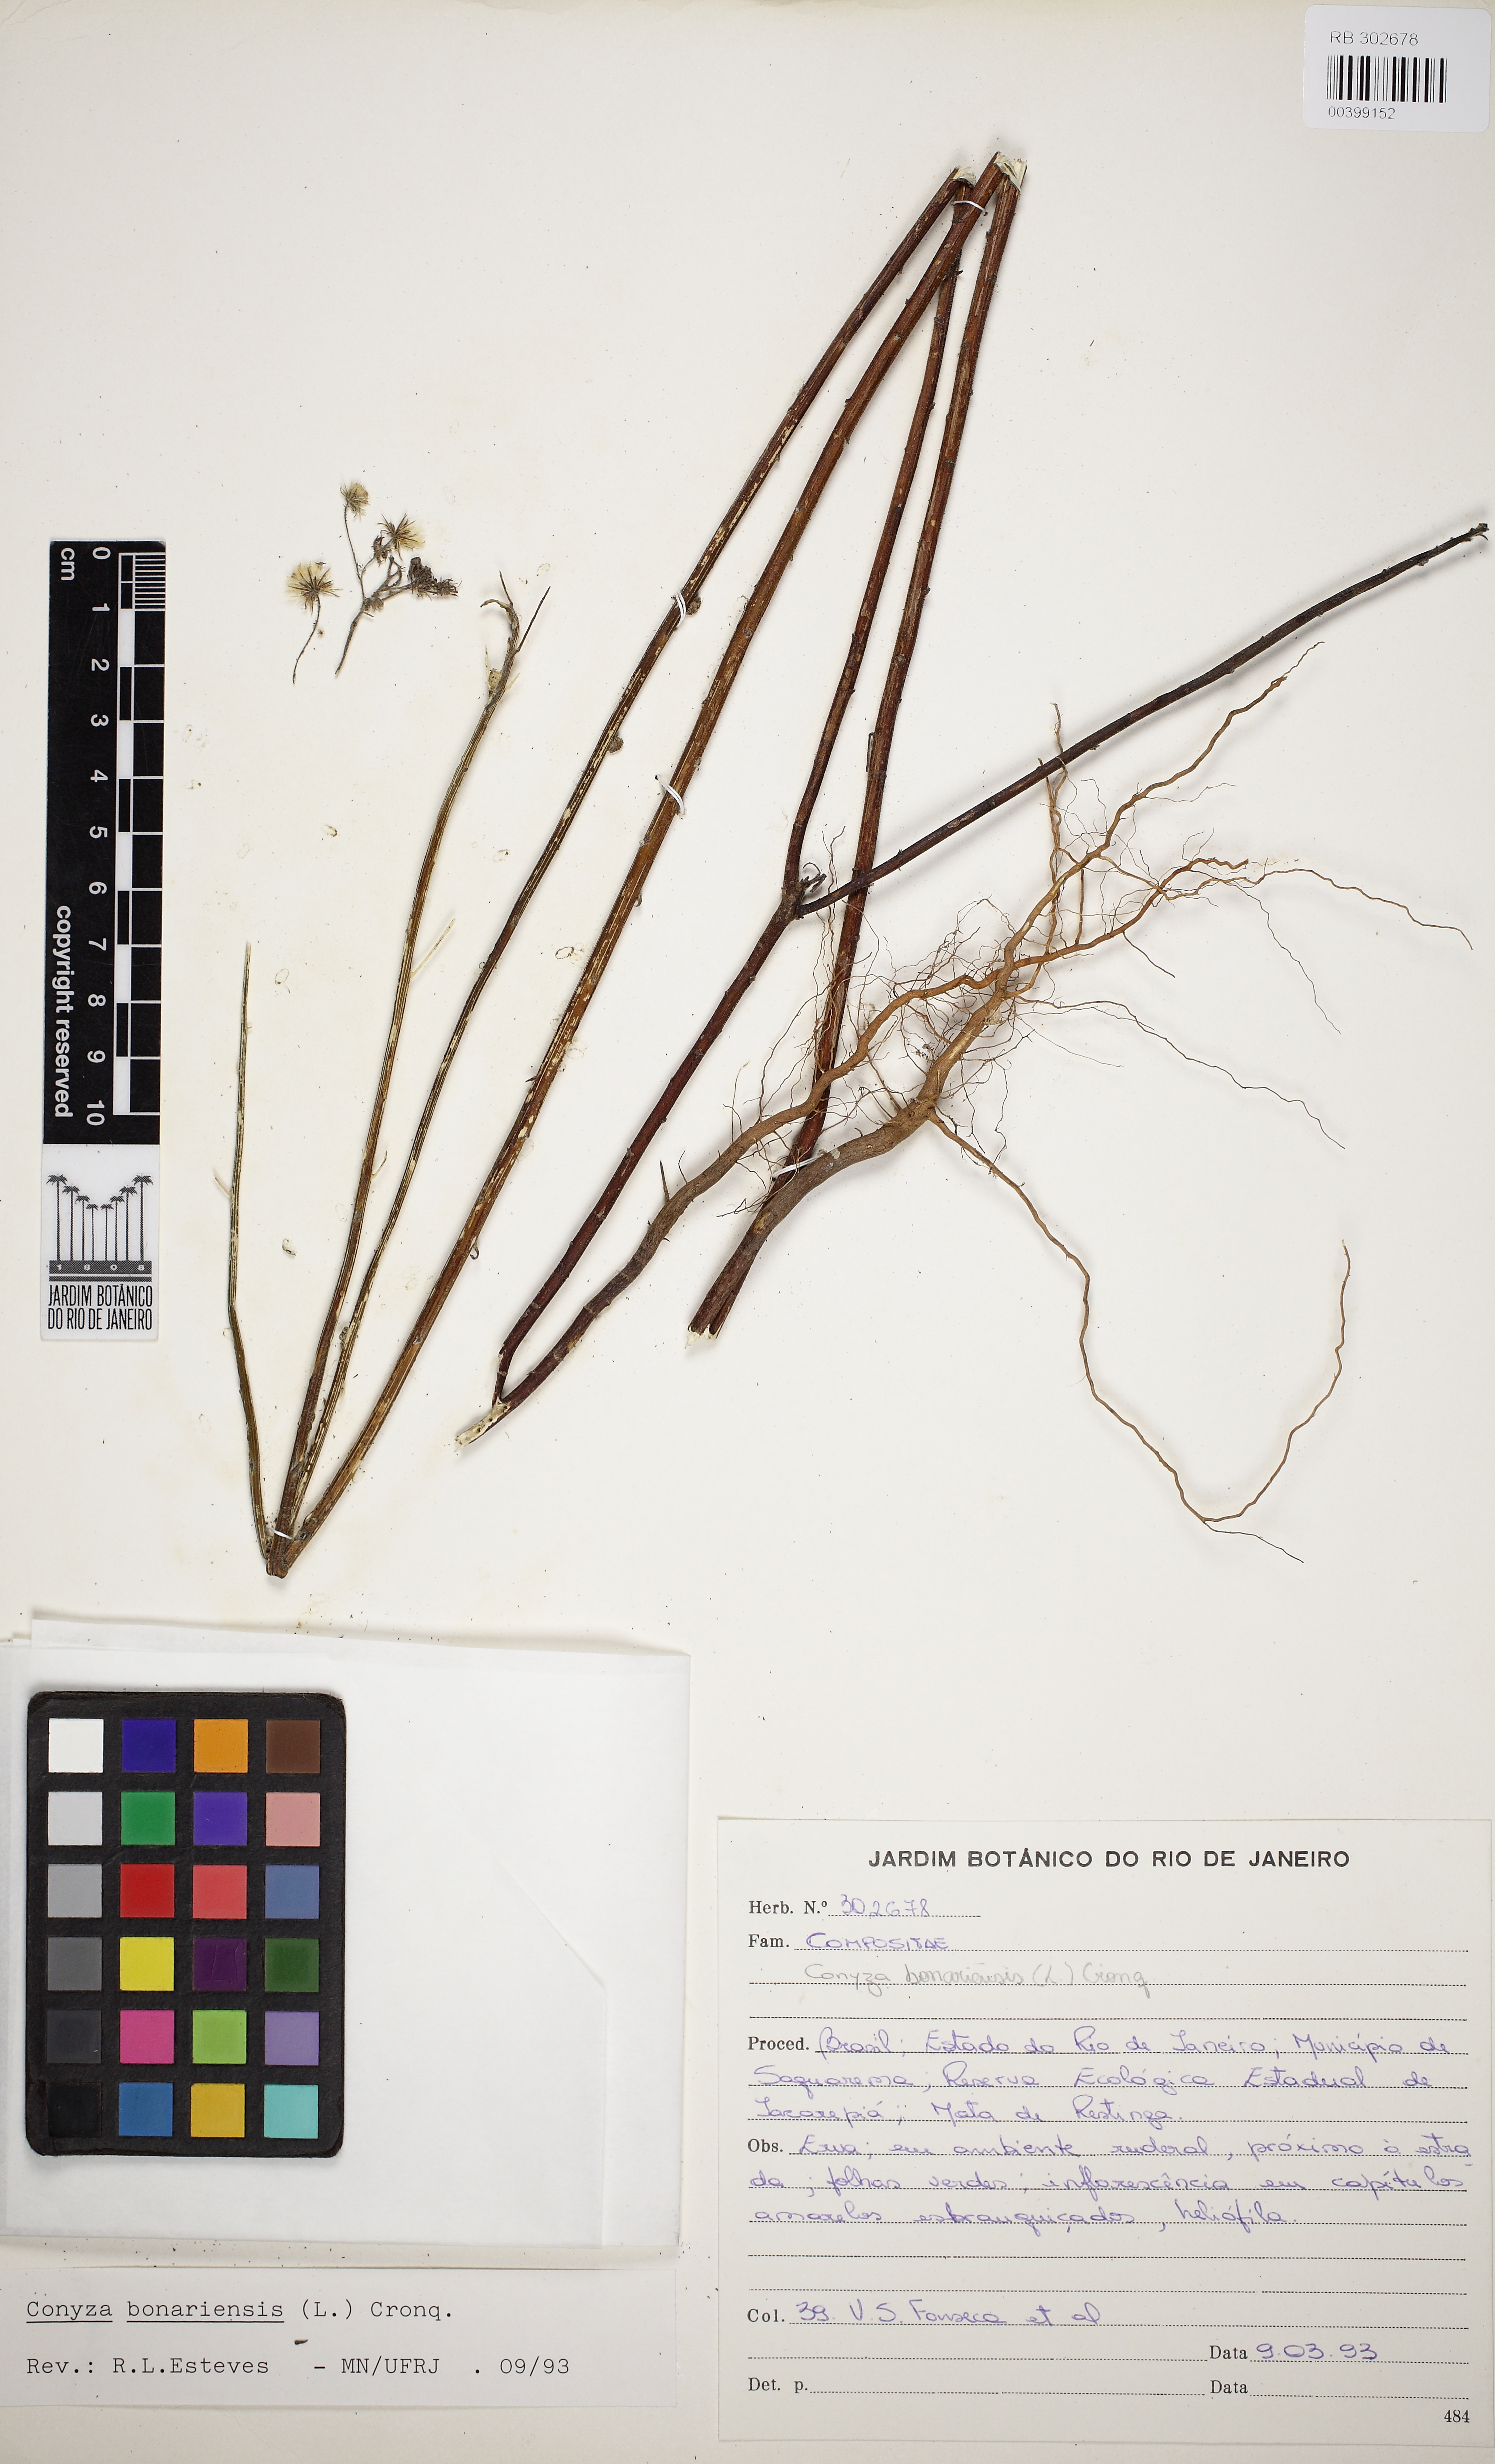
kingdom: Plantae
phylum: Tracheophyta
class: Magnoliopsida
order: Asterales
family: Asteraceae
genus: Erigeron
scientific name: Erigeron bonariensis
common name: Argentine fleabane
